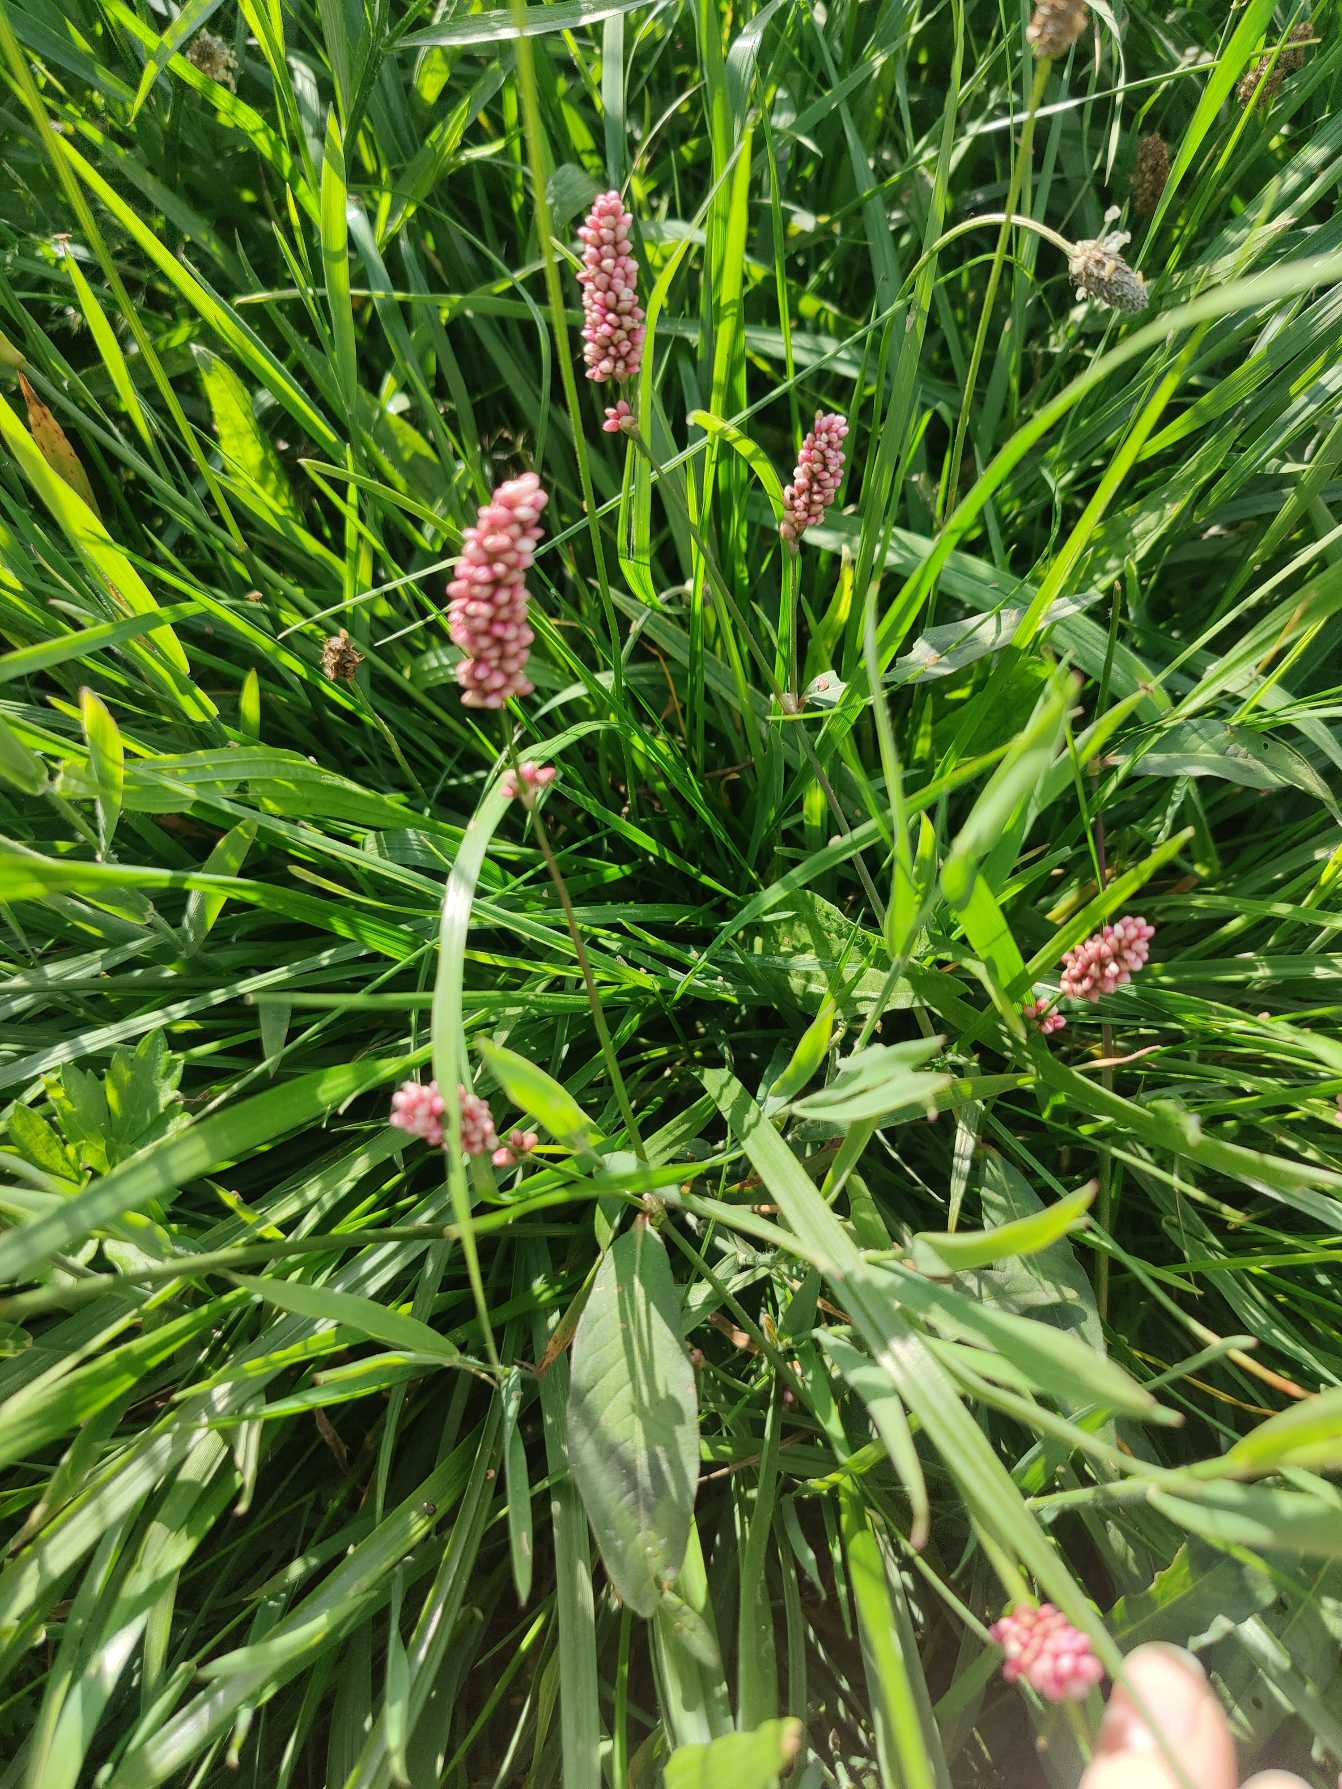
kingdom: Plantae
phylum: Tracheophyta
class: Magnoliopsida
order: Caryophyllales
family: Polygonaceae
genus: Persicaria
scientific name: Persicaria maculosa
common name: Fersken-pileurt
